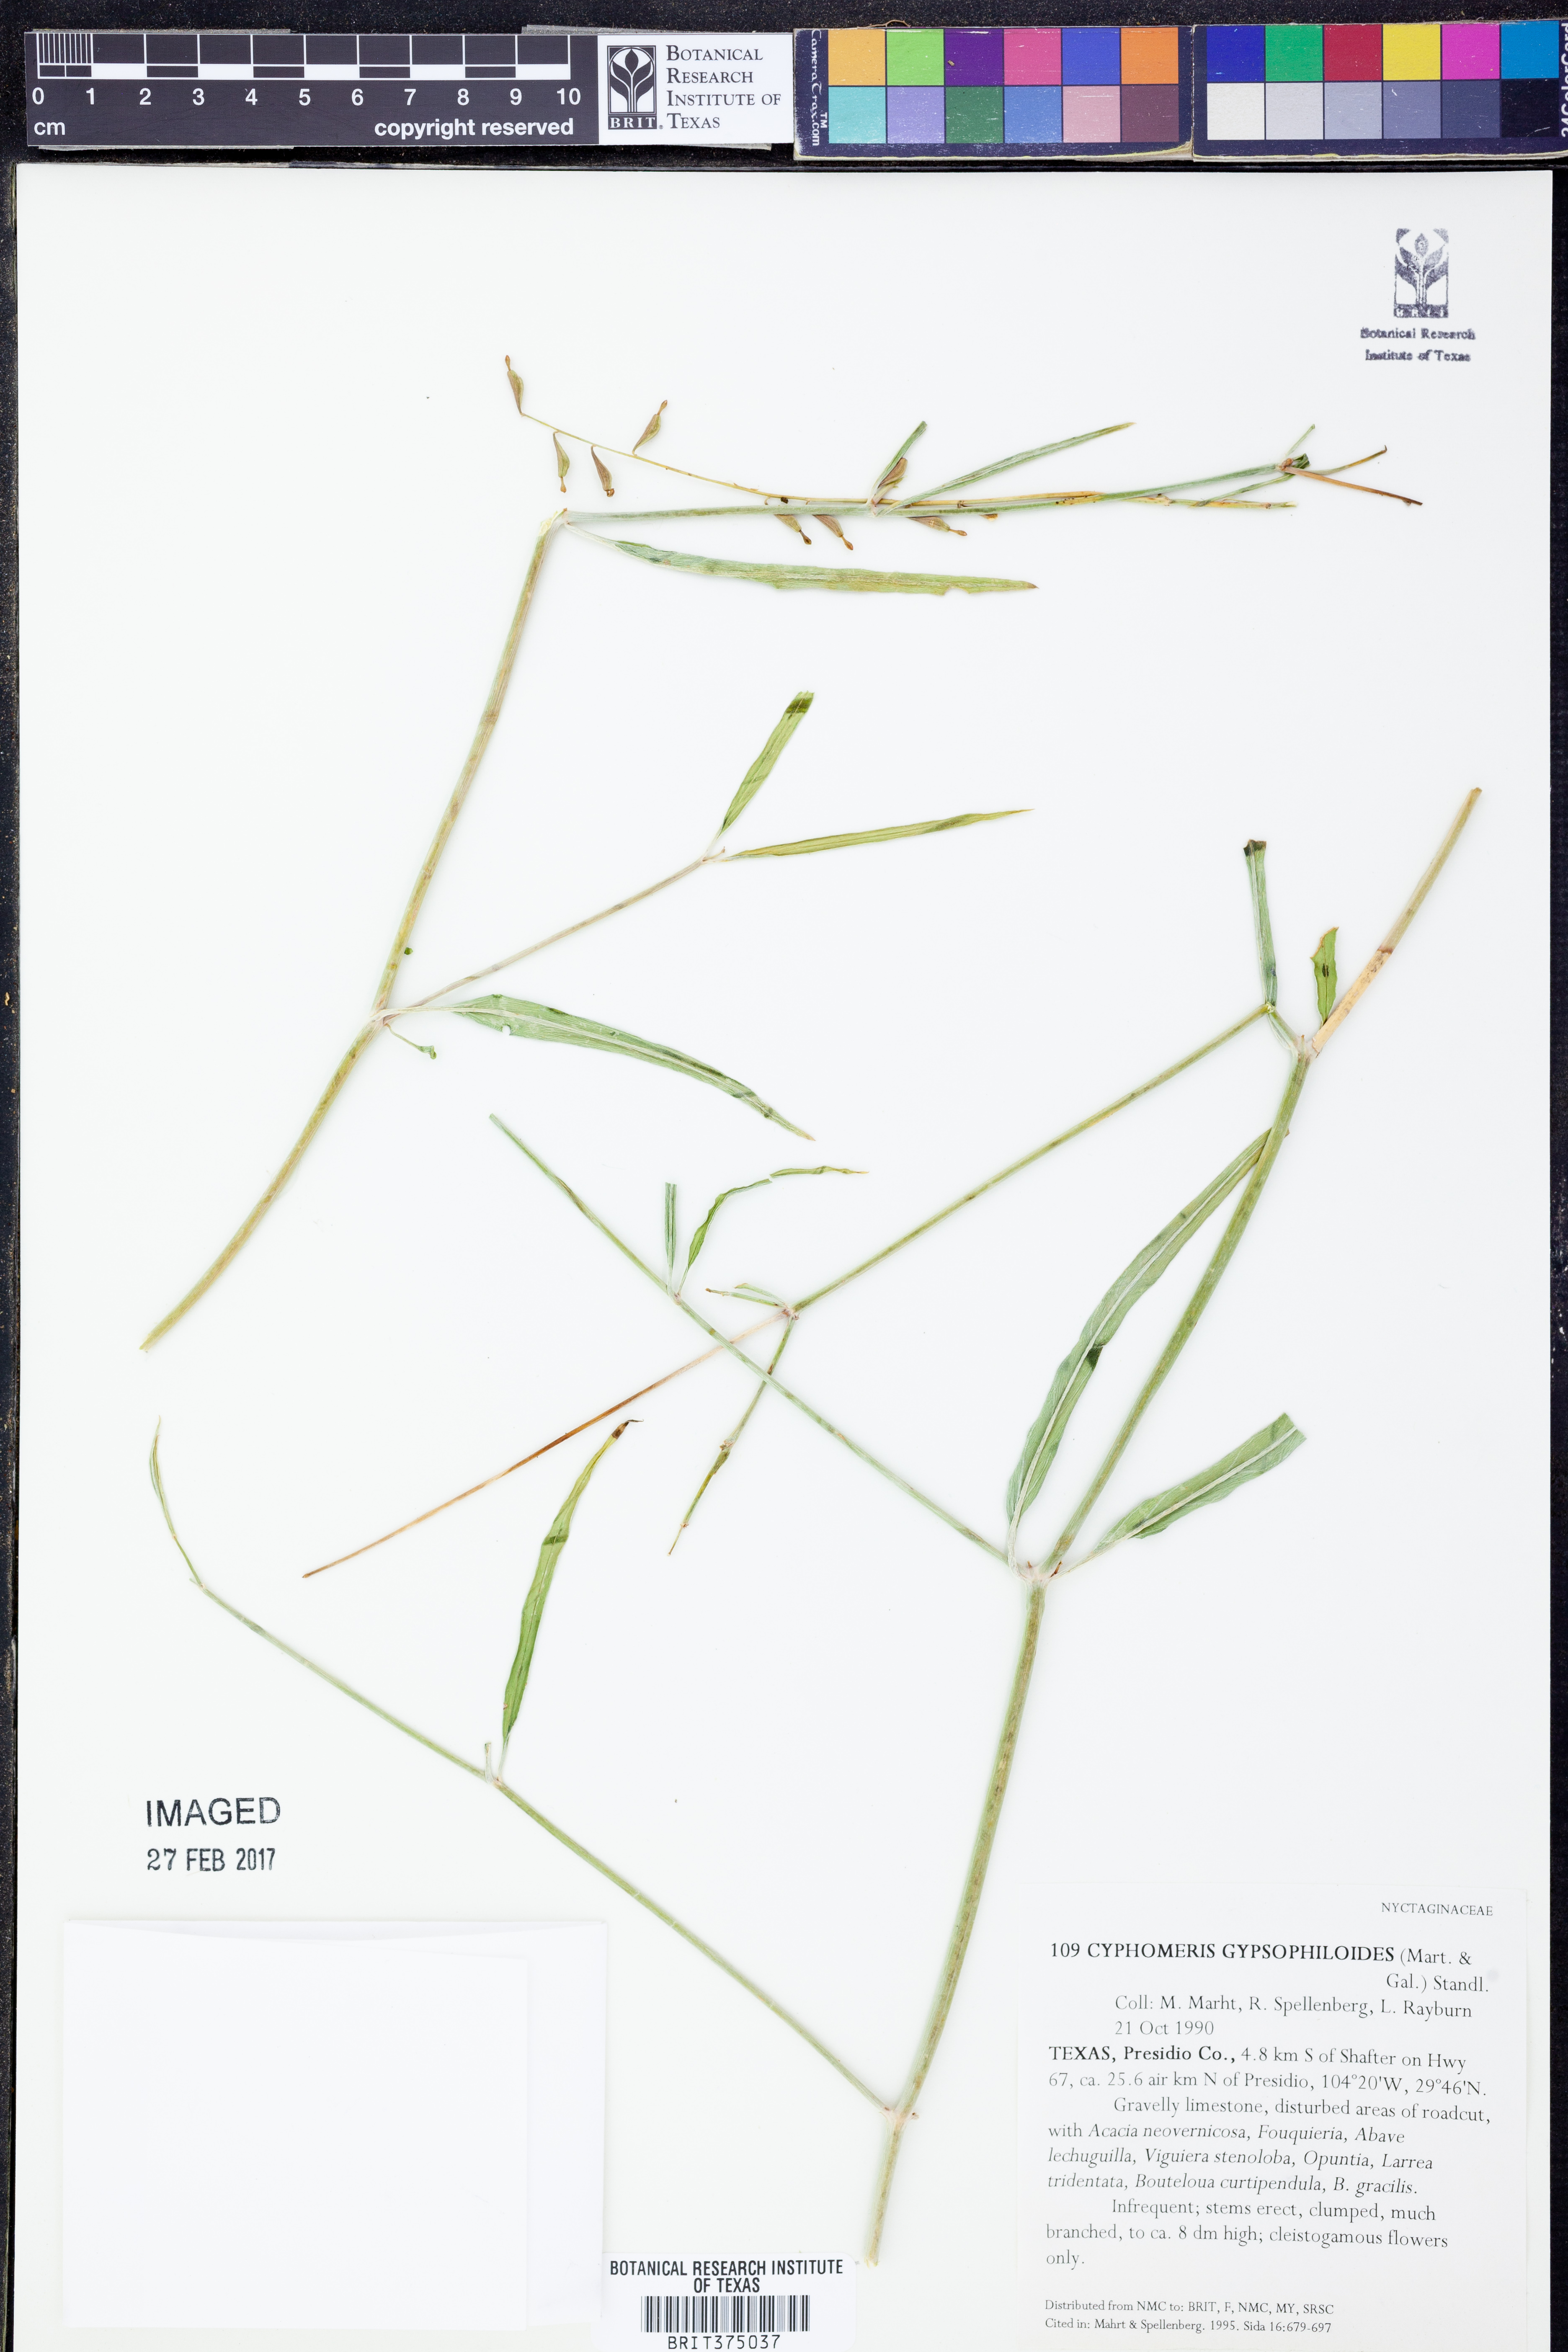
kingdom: Plantae
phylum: Tracheophyta
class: Magnoliopsida
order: Caryophyllales
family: Nyctaginaceae
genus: Cyphomeris
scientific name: Cyphomeris gypsophiloides
